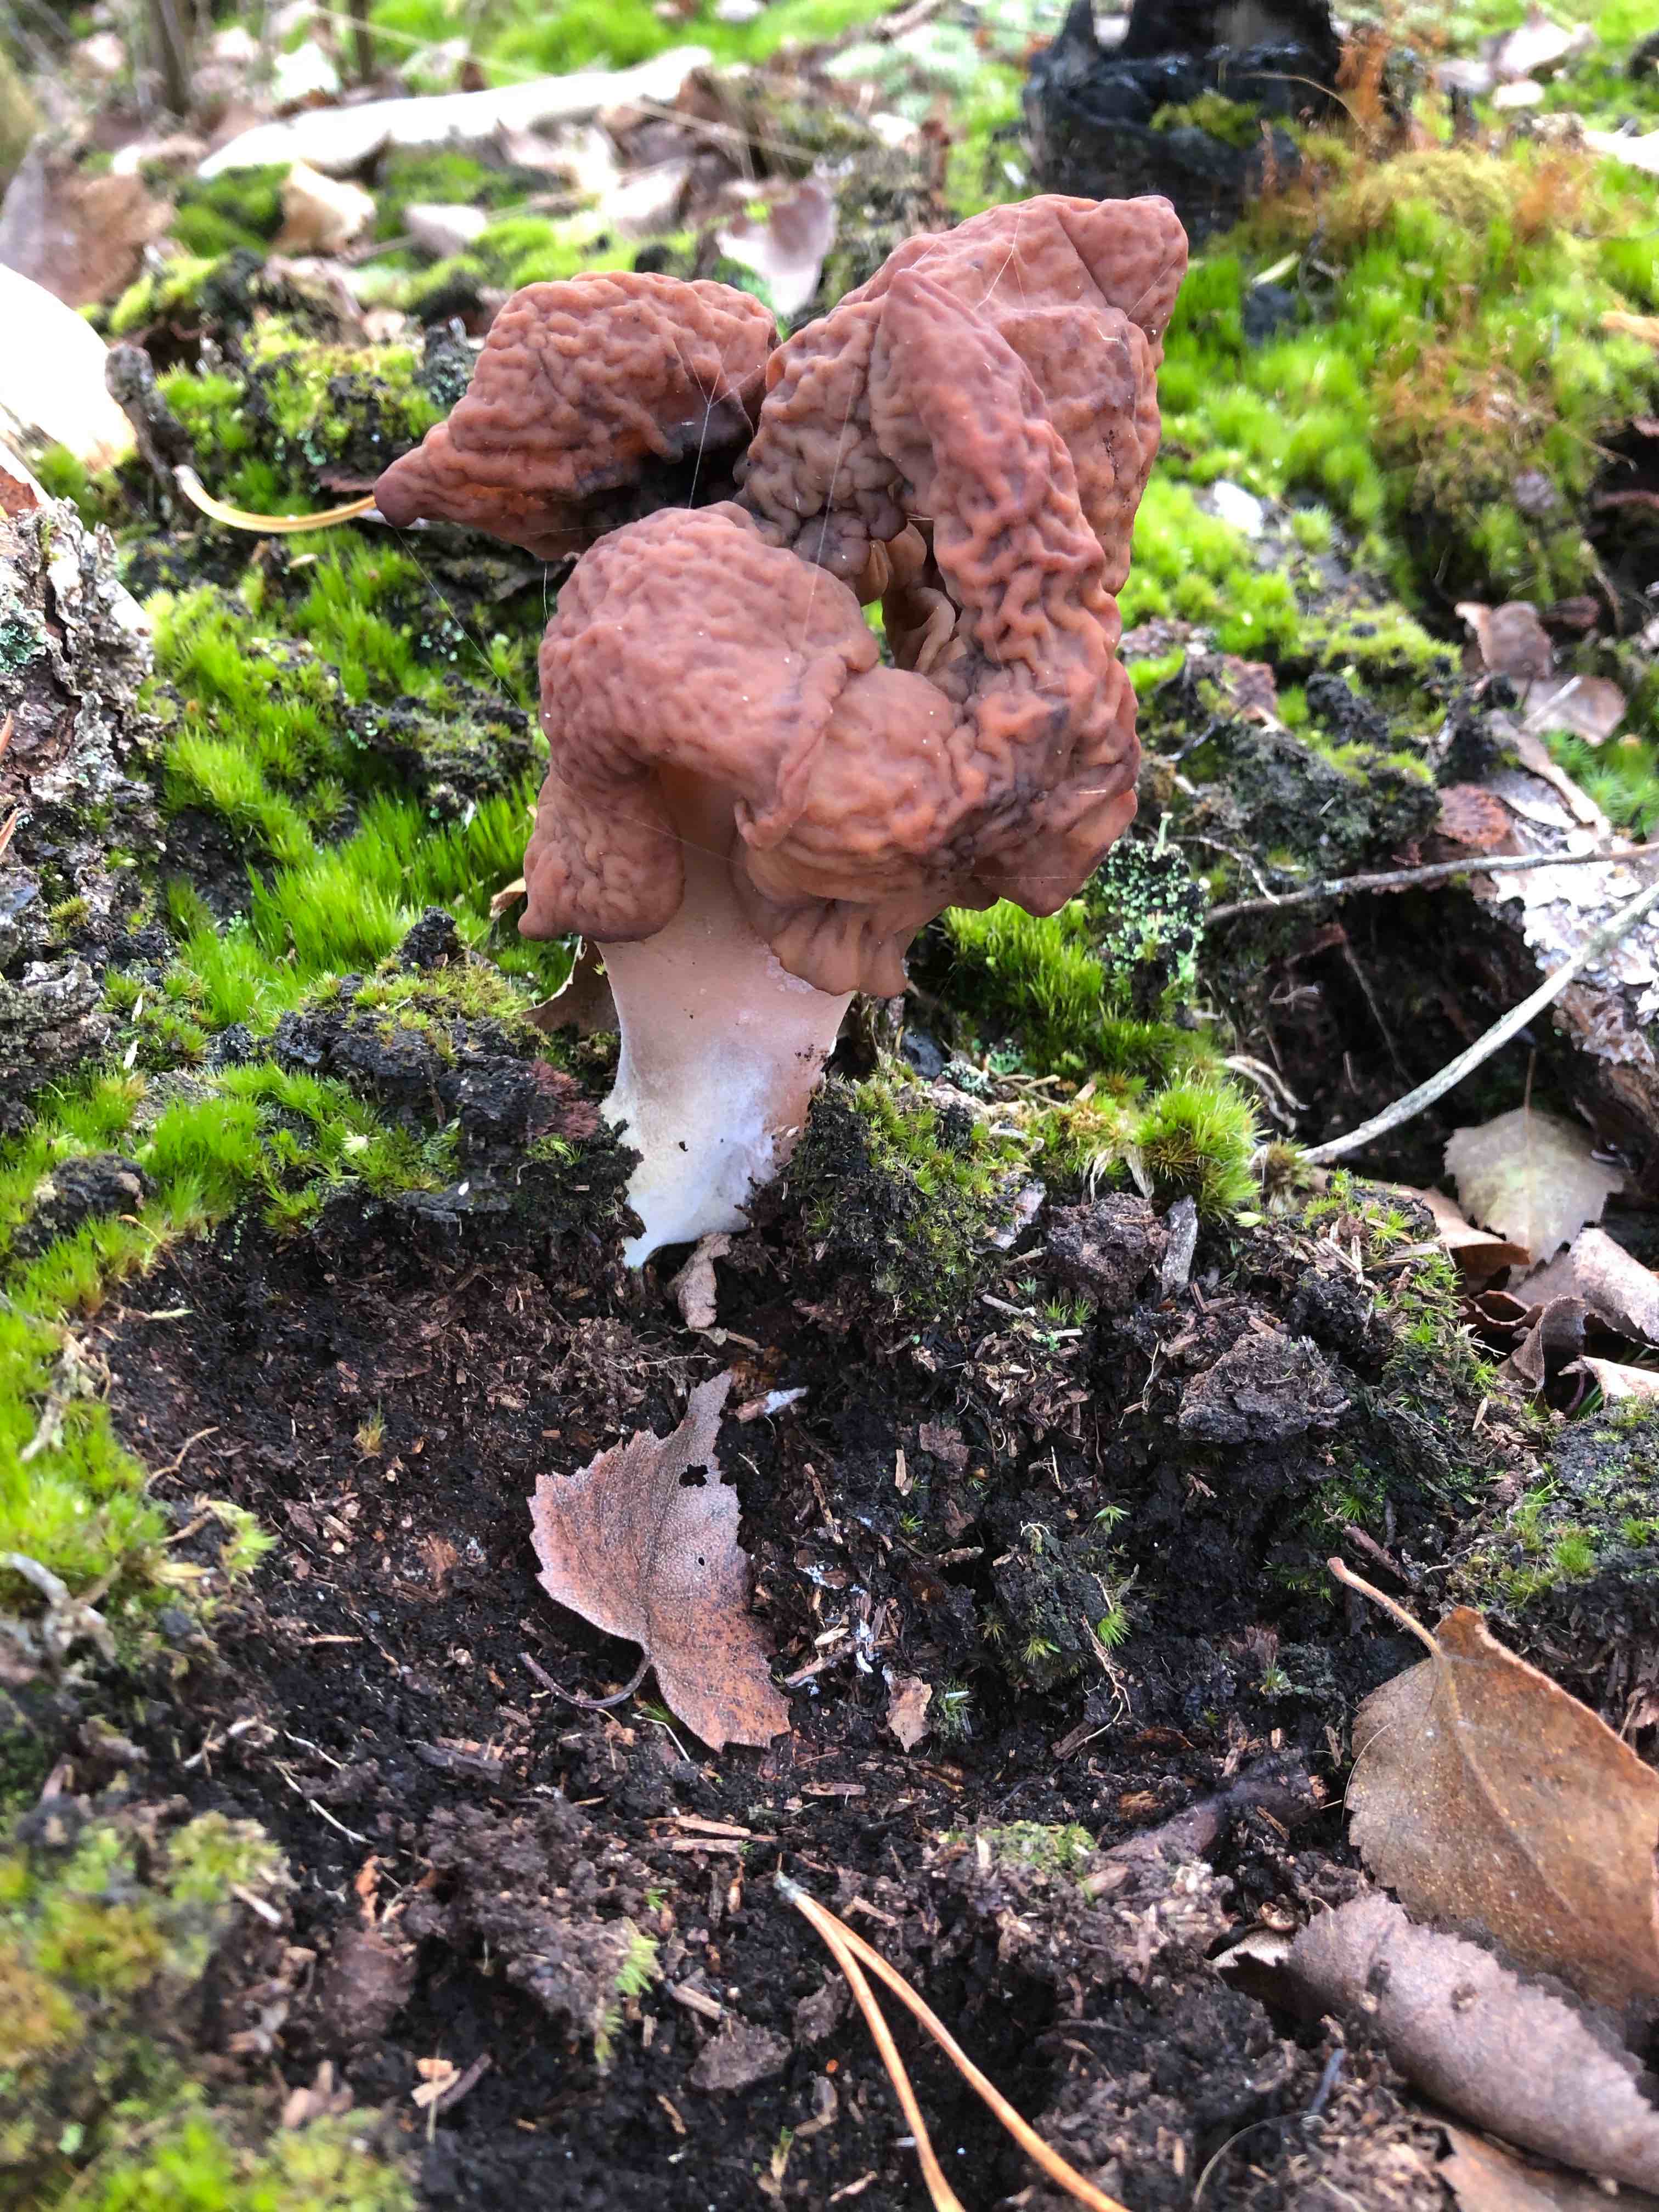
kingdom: Fungi
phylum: Ascomycota
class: Pezizomycetes
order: Pezizales
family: Discinaceae
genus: Gyromitra
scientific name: Gyromitra infula
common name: bispehue-stenmorkel
